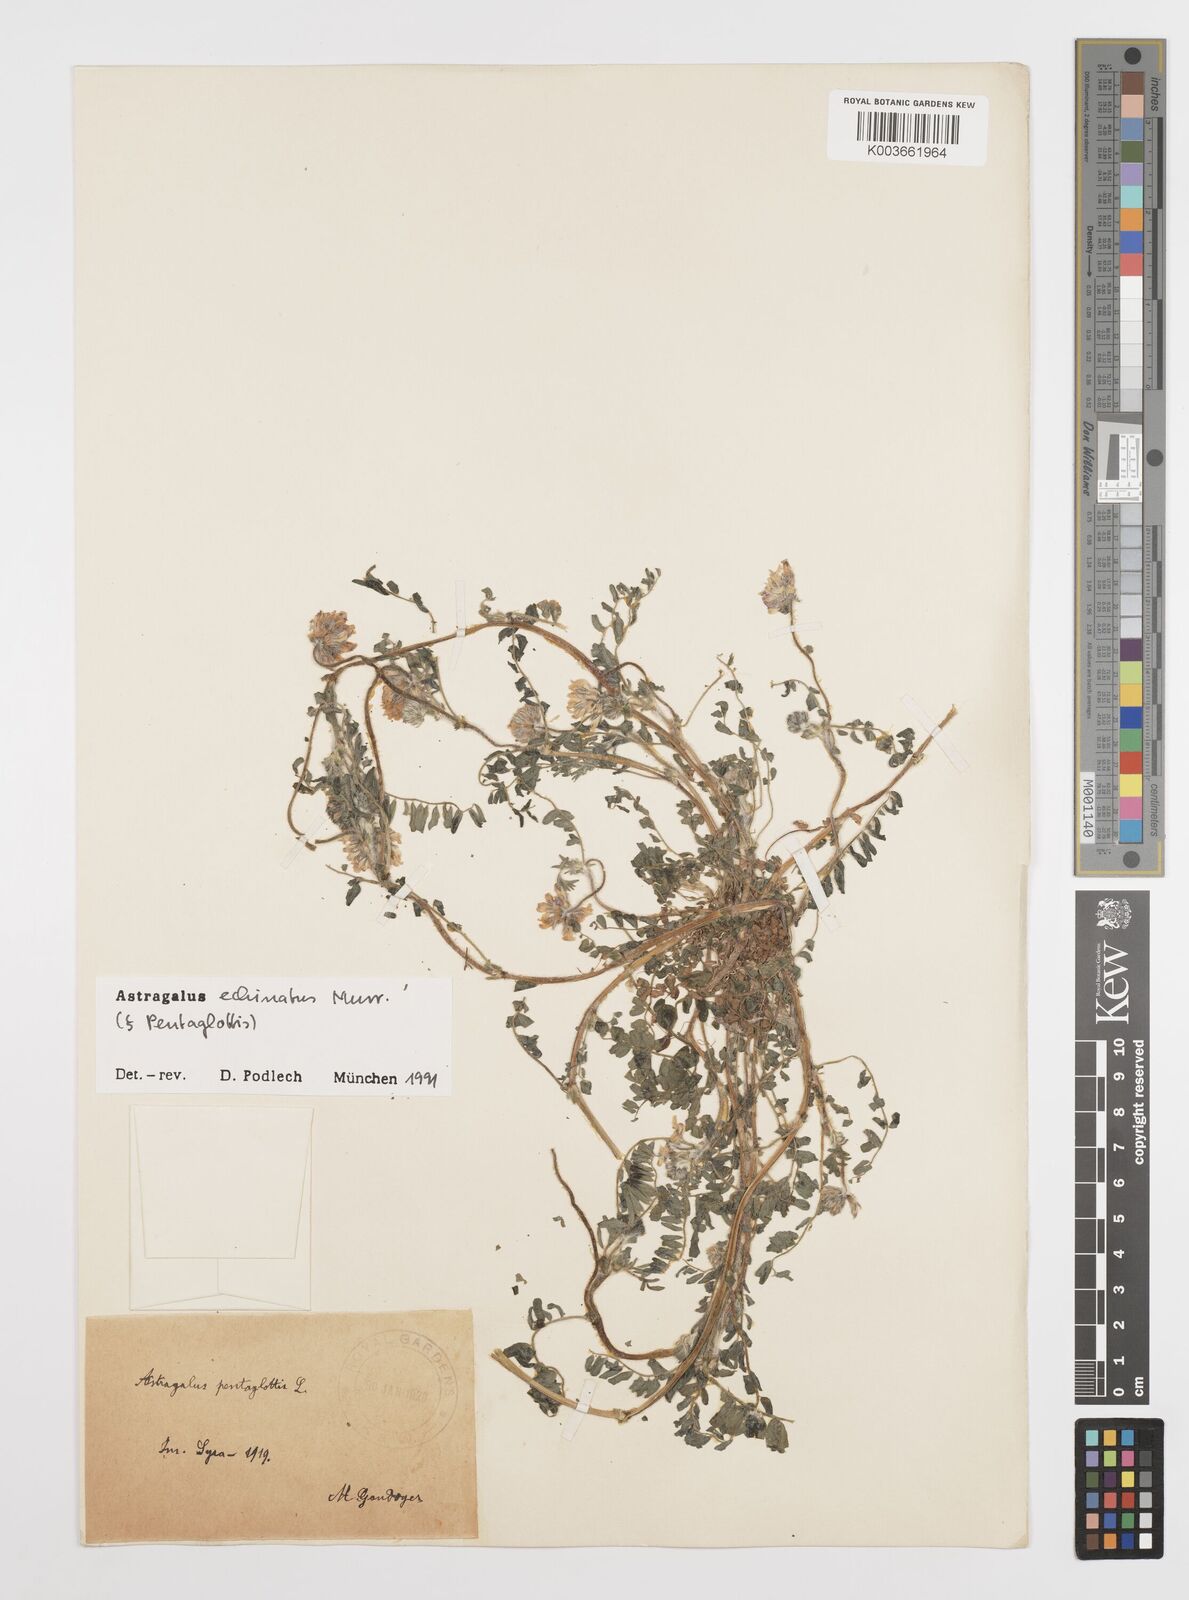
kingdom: Plantae
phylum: Tracheophyta
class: Magnoliopsida
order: Fabales
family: Fabaceae
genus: Astragalus
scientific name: Astragalus echinatus
